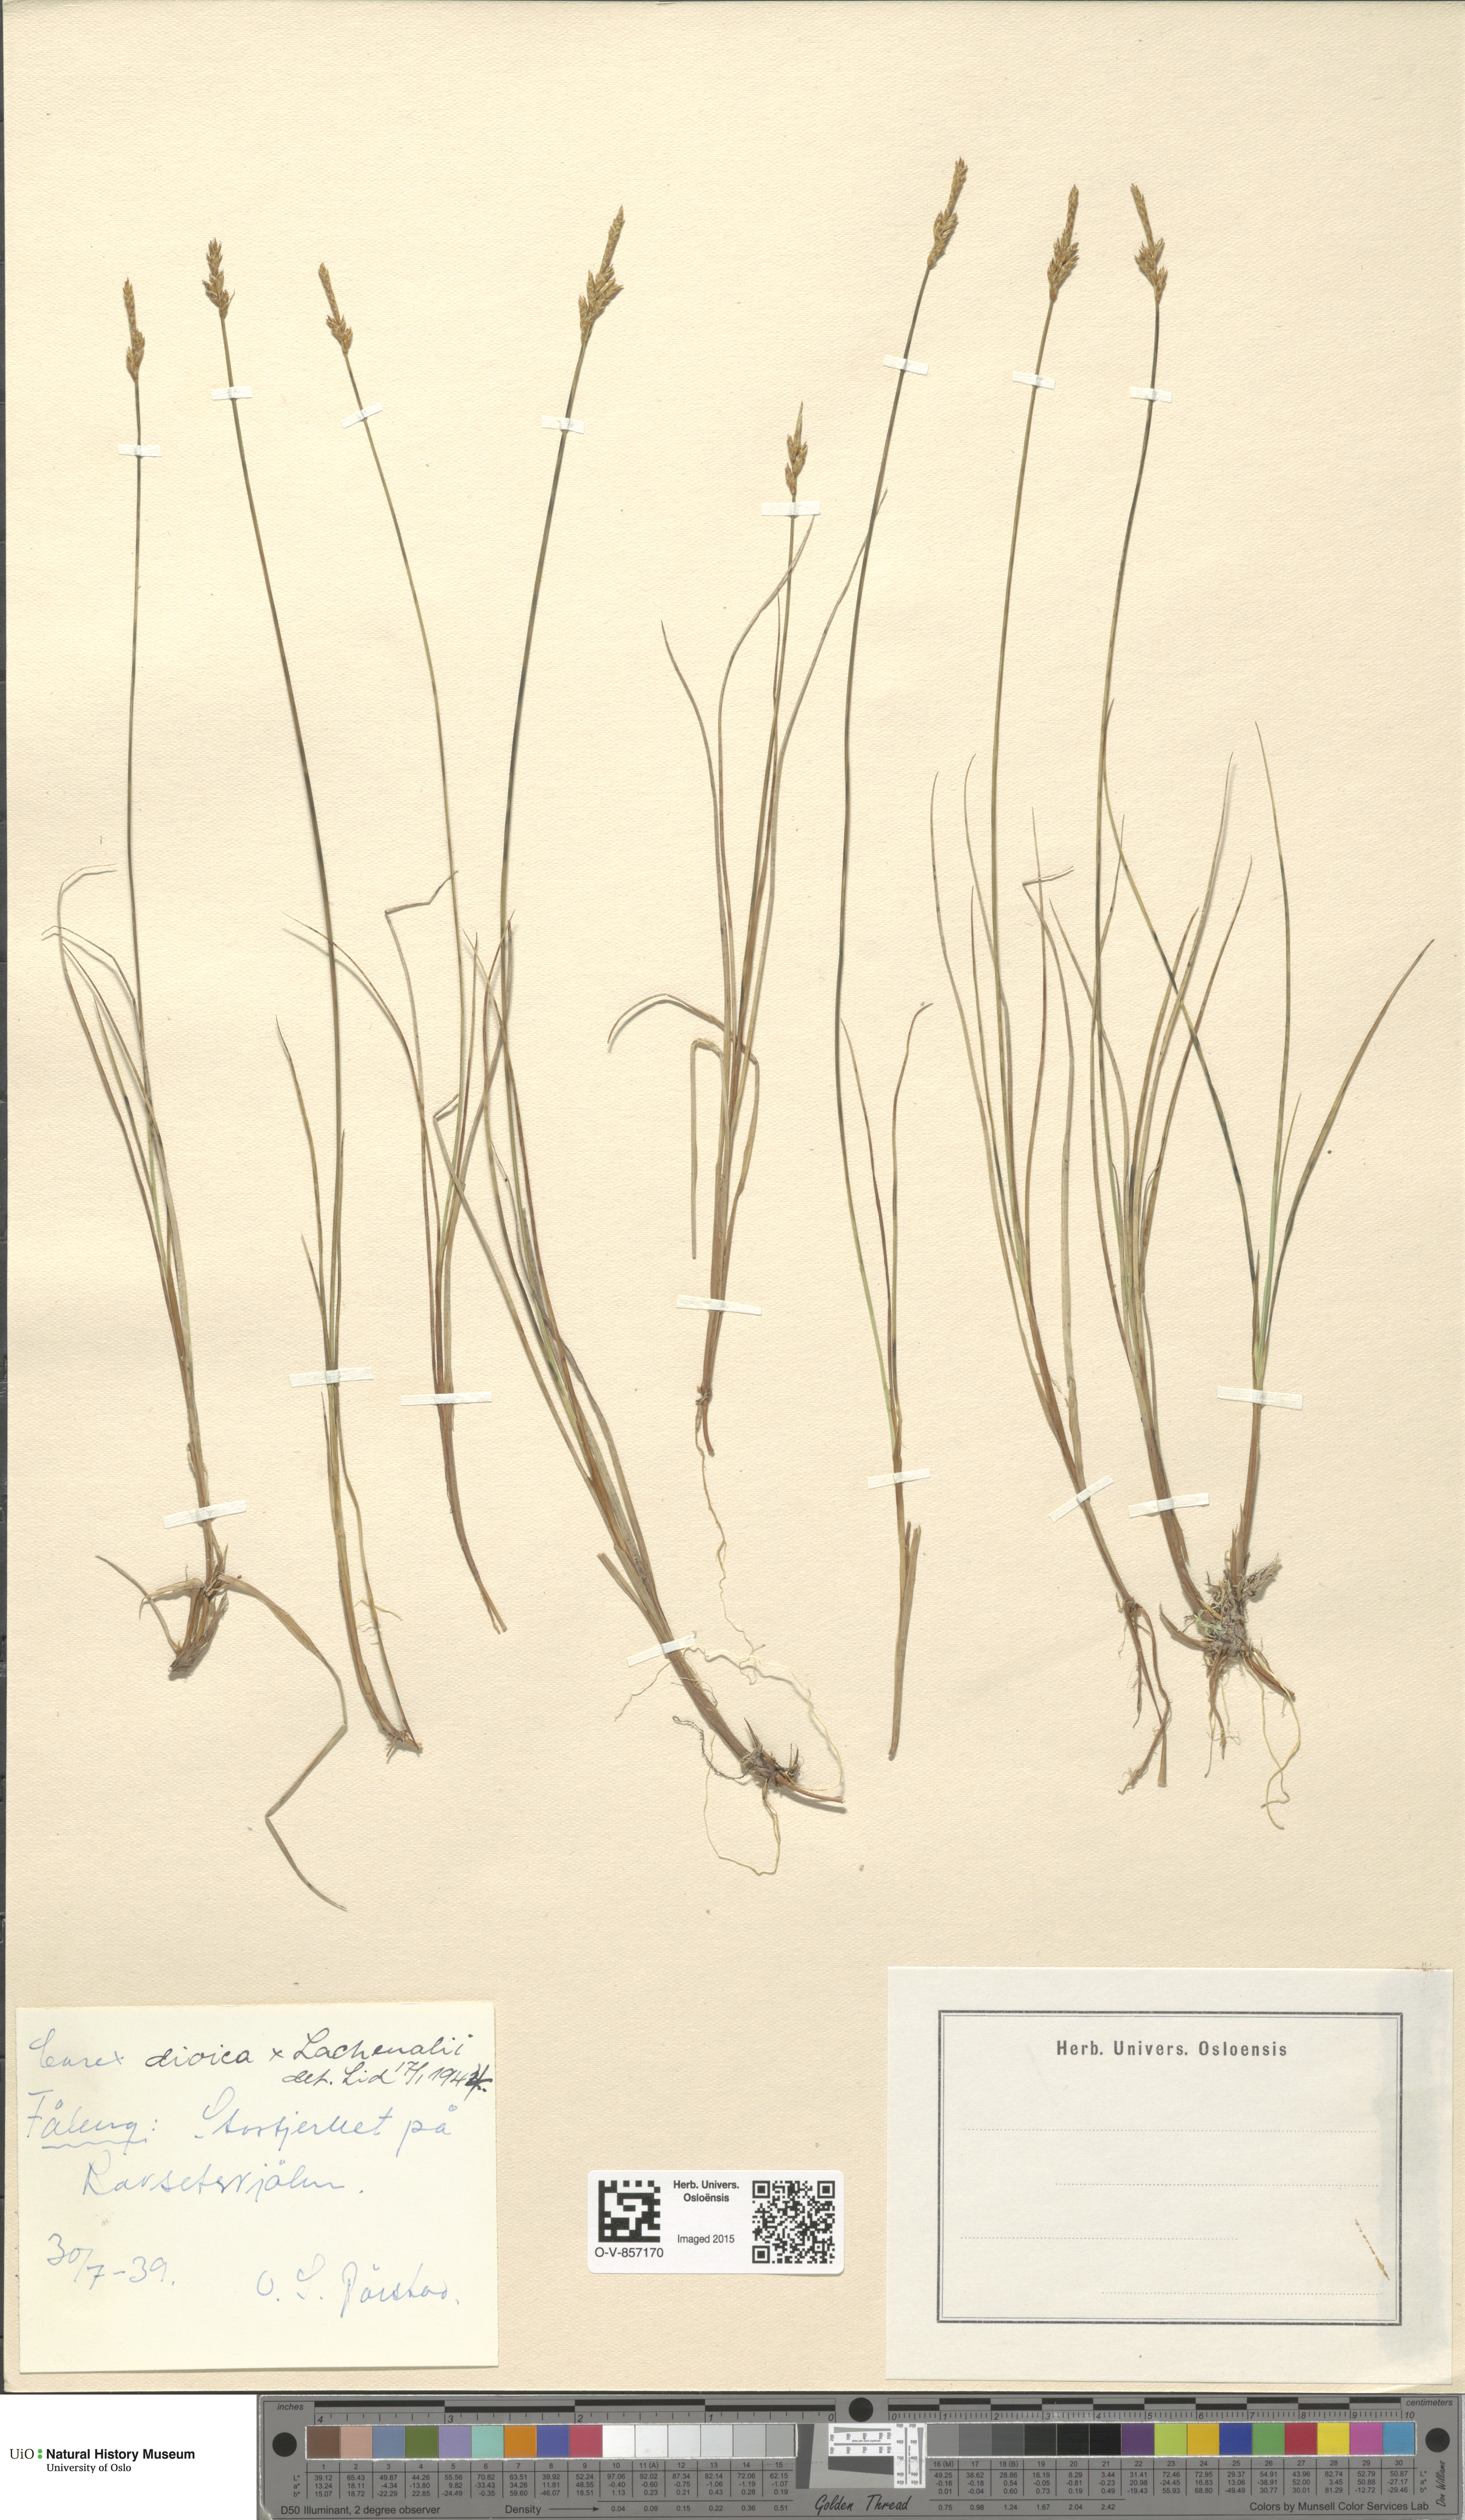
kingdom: Plantae
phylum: Tracheophyta
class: Liliopsida
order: Poales
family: Cyperaceae
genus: Carex
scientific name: Carex
